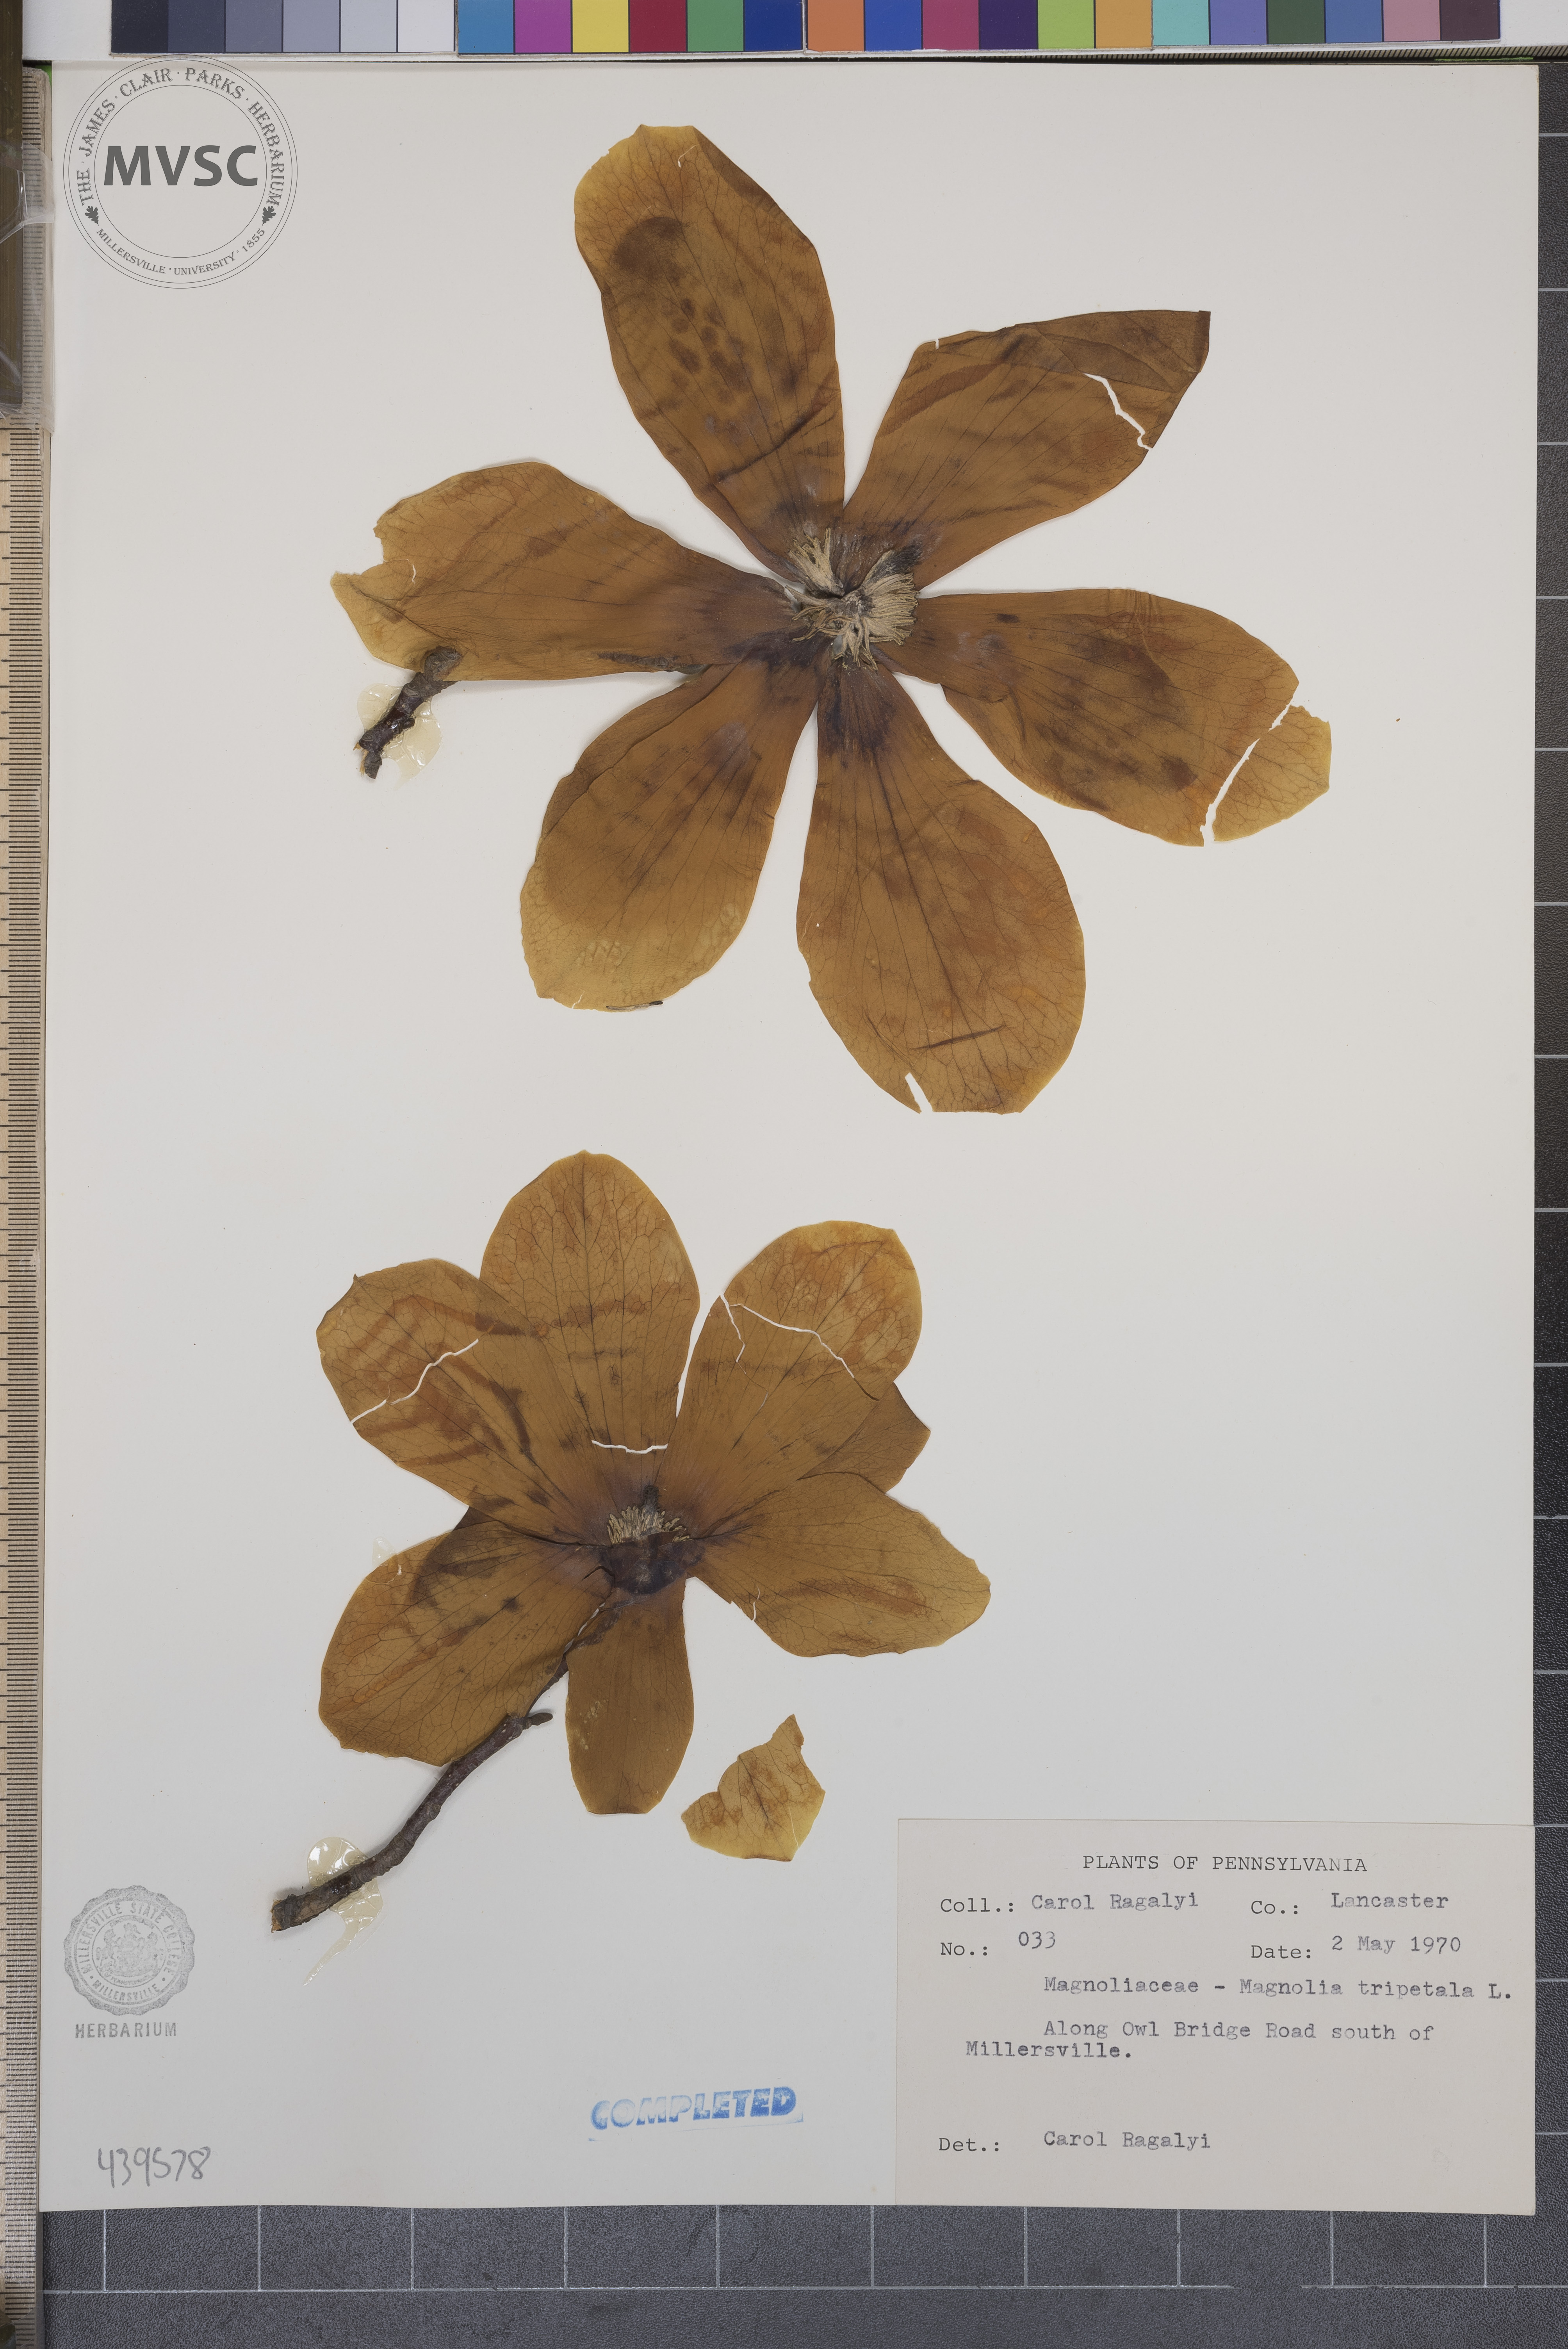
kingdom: Plantae
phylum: Tracheophyta
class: Magnoliopsida
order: Magnoliales
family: Magnoliaceae
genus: Magnolia
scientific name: Magnolia tripetala
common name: Umbrella magnolia
